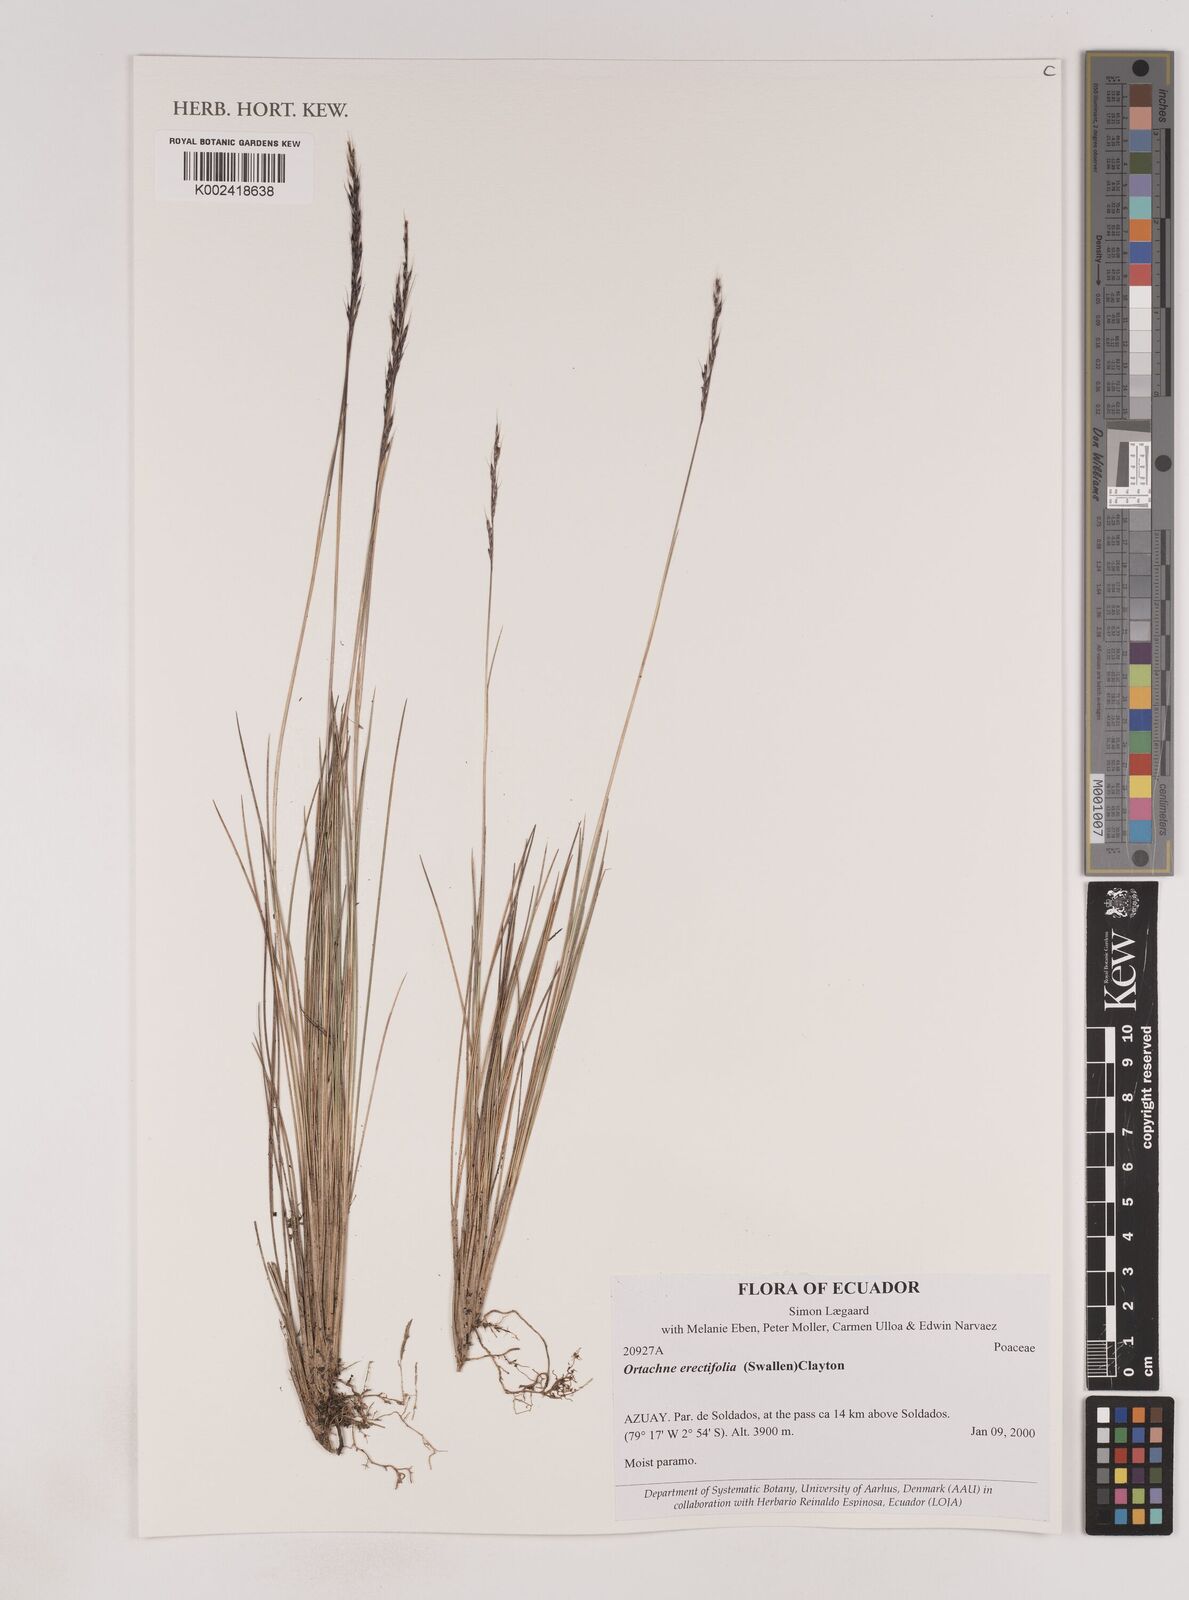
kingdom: Plantae
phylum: Tracheophyta
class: Liliopsida
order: Poales
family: Poaceae
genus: Lorenzochloa
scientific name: Lorenzochloa erectifolia
